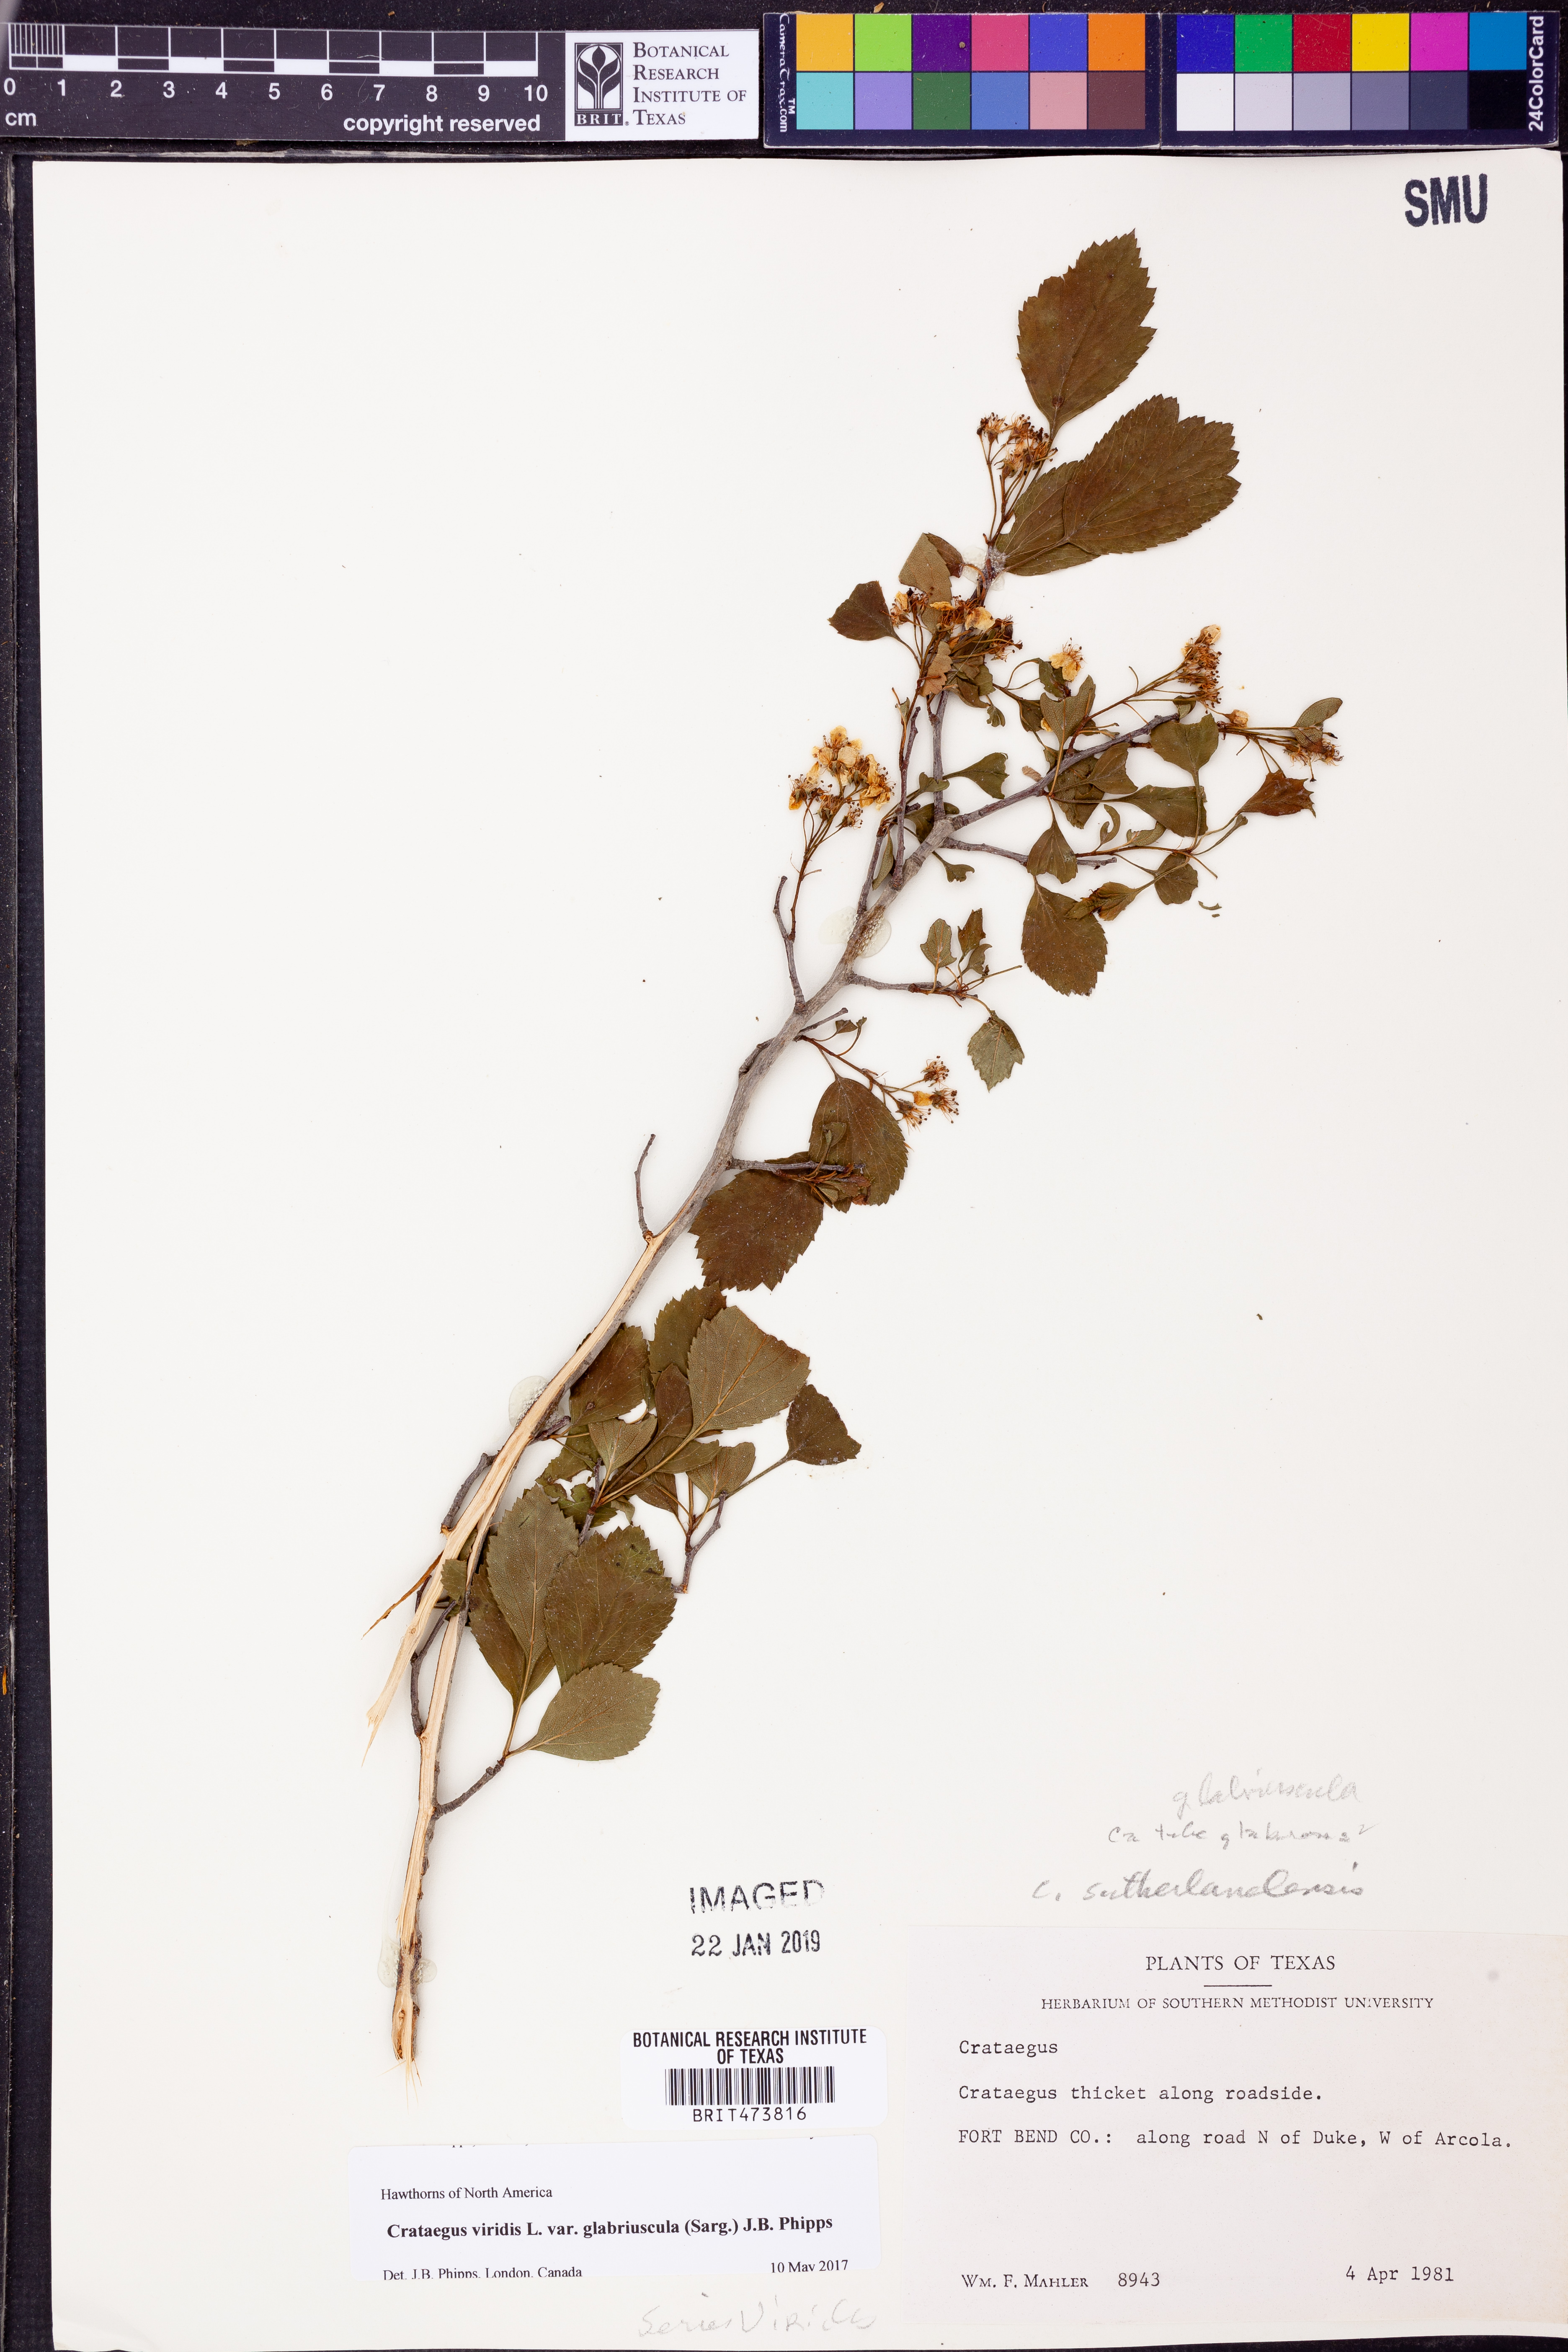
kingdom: Plantae
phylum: Tracheophyta
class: Magnoliopsida
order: Rosales
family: Rosaceae
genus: Crataegus
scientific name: Crataegus viridis
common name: Southernthorn
